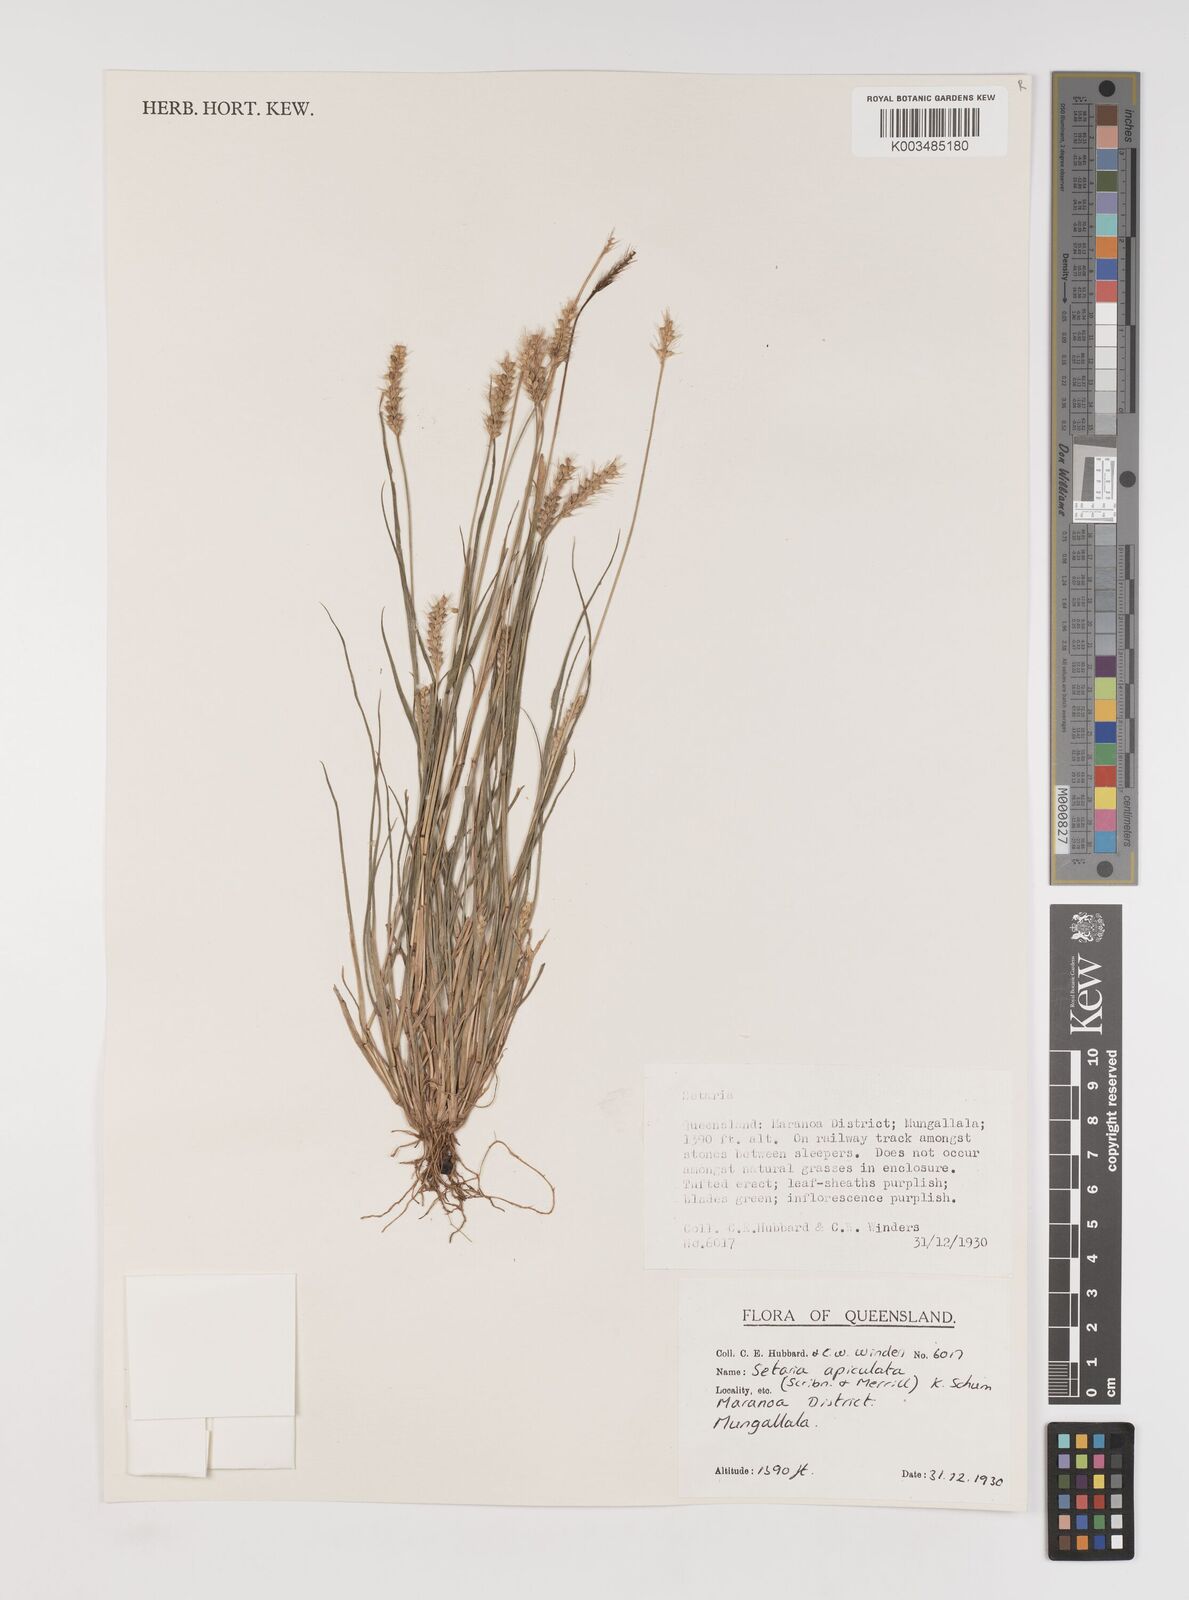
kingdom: Plantae
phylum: Tracheophyta
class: Liliopsida
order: Poales
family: Poaceae
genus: Setaria
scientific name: Setaria apiculata
